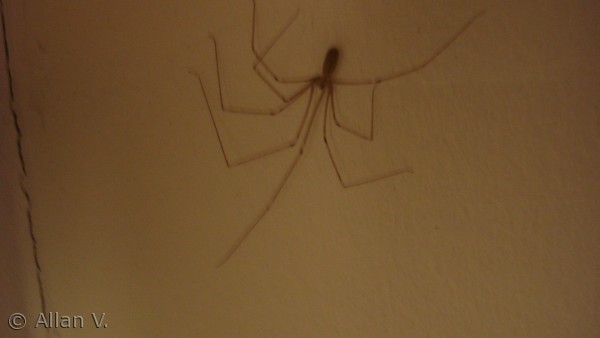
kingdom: Animalia
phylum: Arthropoda
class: Arachnida
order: Araneae
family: Pholcidae
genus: Pholcus
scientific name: Pholcus phalangioides
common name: Mejeredderkop
